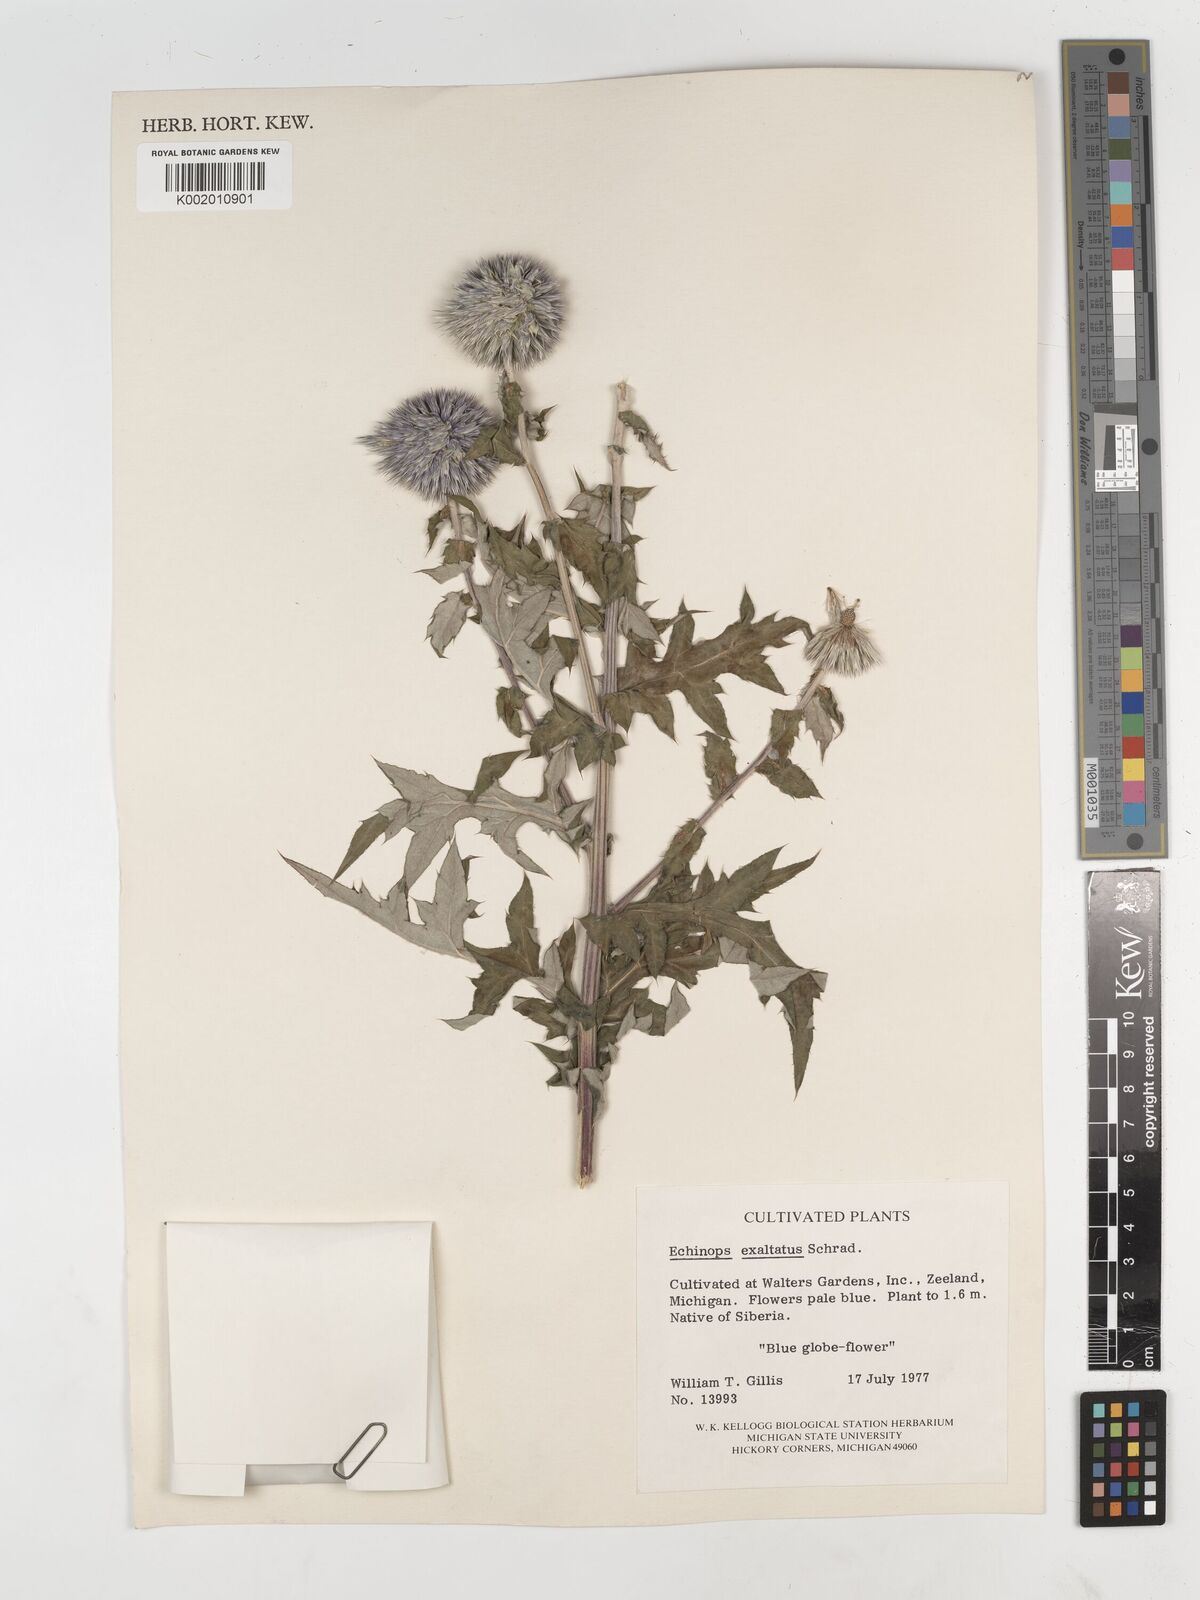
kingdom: Plantae
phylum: Tracheophyta
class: Magnoliopsida
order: Asterales
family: Asteraceae
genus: Echinops
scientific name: Echinops exaltatus
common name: Globe-thistle
